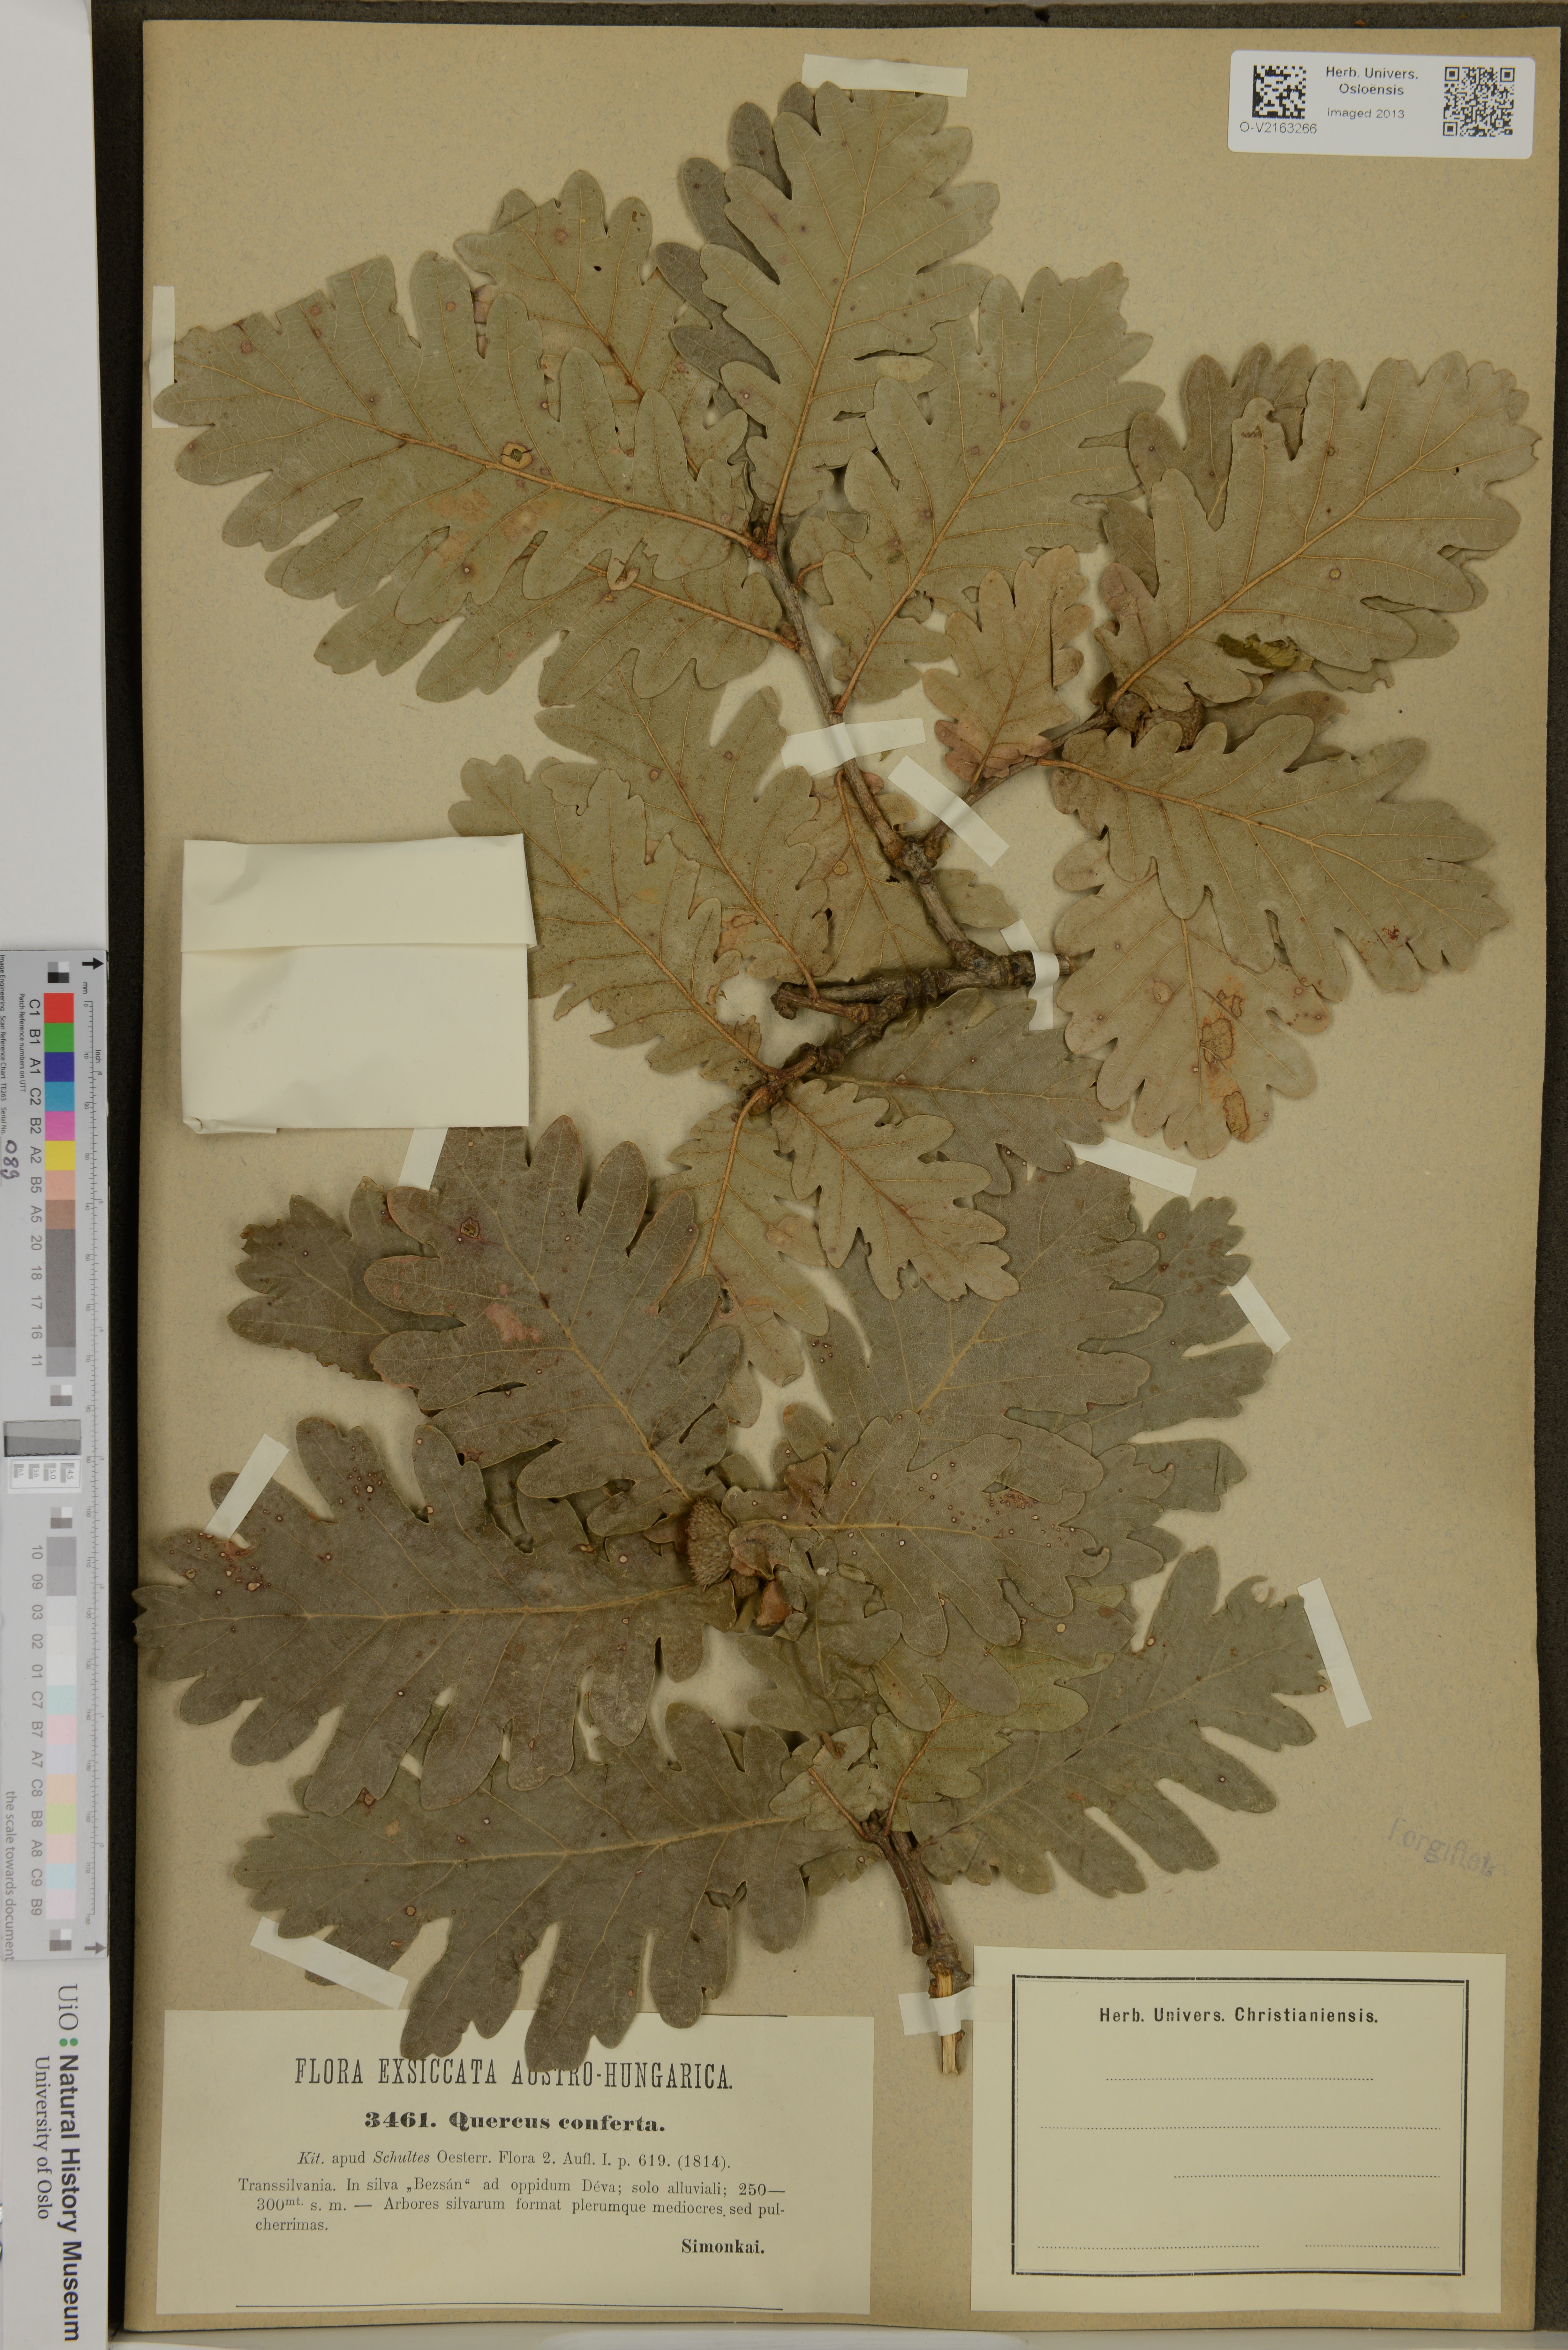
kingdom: Plantae
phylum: Tracheophyta
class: Magnoliopsida
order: Fagales
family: Fagaceae
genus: Quercus
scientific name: Quercus conferta
